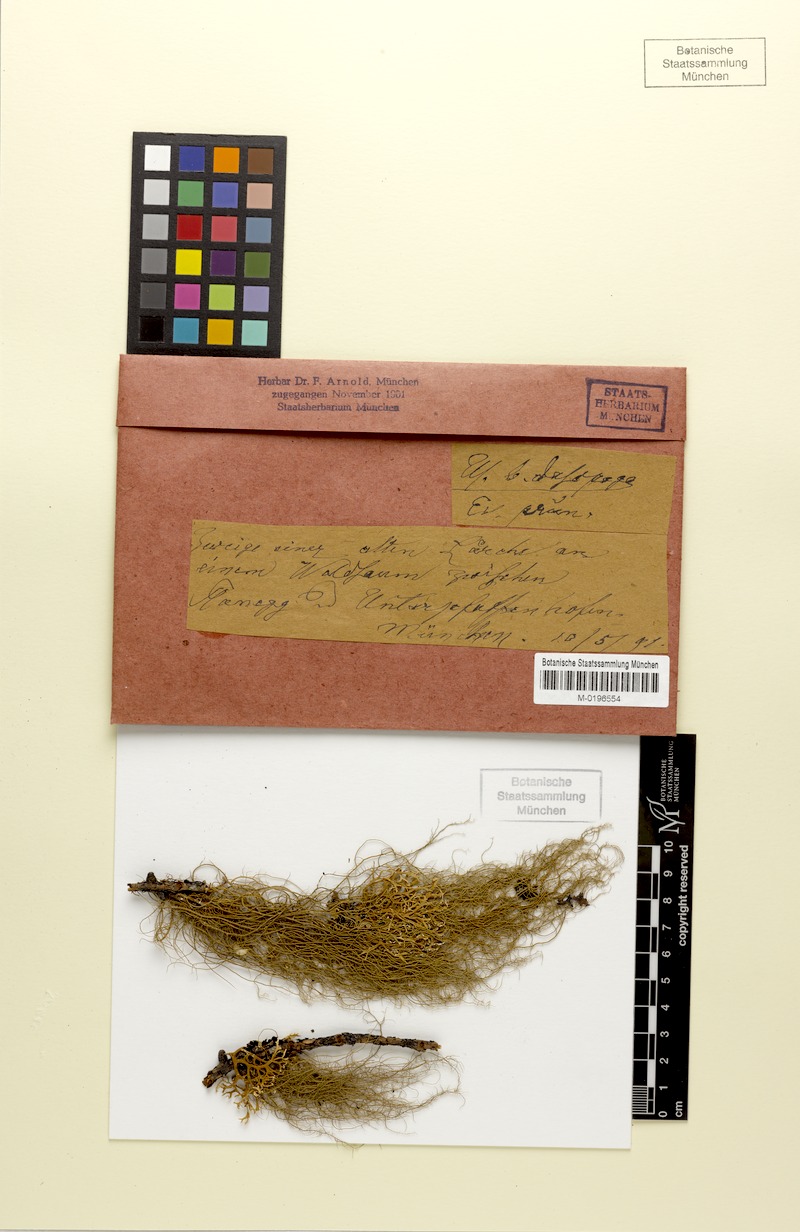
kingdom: Fungi
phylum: Ascomycota
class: Lecanoromycetes
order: Lecanorales
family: Parmeliaceae
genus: Evernia
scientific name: Evernia prunastri
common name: Oak moss
